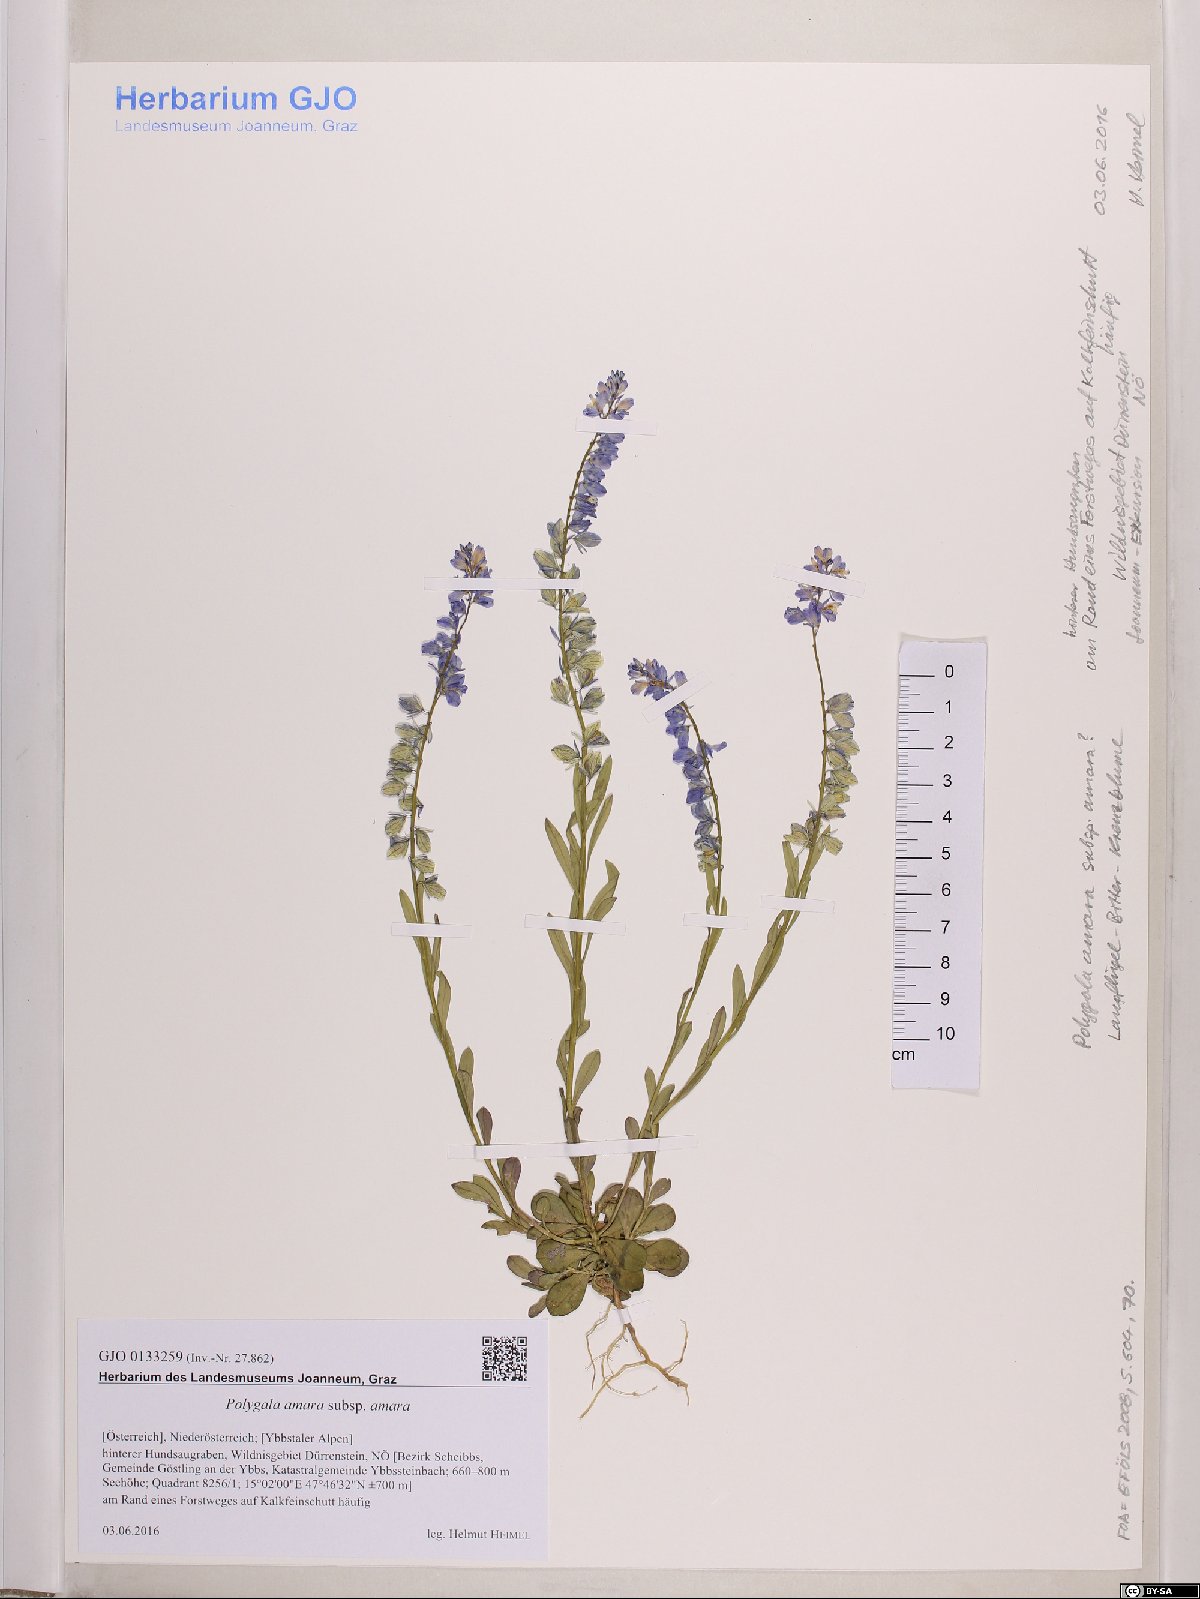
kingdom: Plantae
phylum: Tracheophyta
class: Magnoliopsida
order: Fabales
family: Polygalaceae
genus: Polygala
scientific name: Polygala amara
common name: Milkwort
